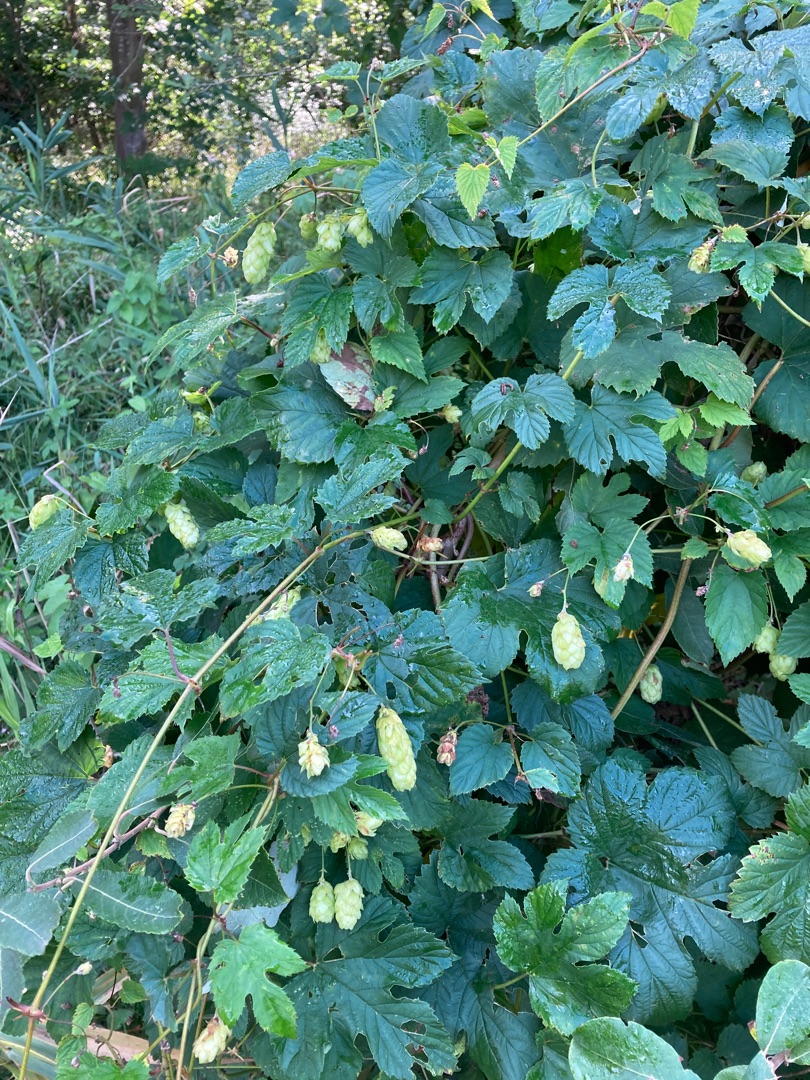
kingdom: Plantae
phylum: Tracheophyta
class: Magnoliopsida
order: Rosales
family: Cannabaceae
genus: Humulus
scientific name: Humulus lupulus
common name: Humle
